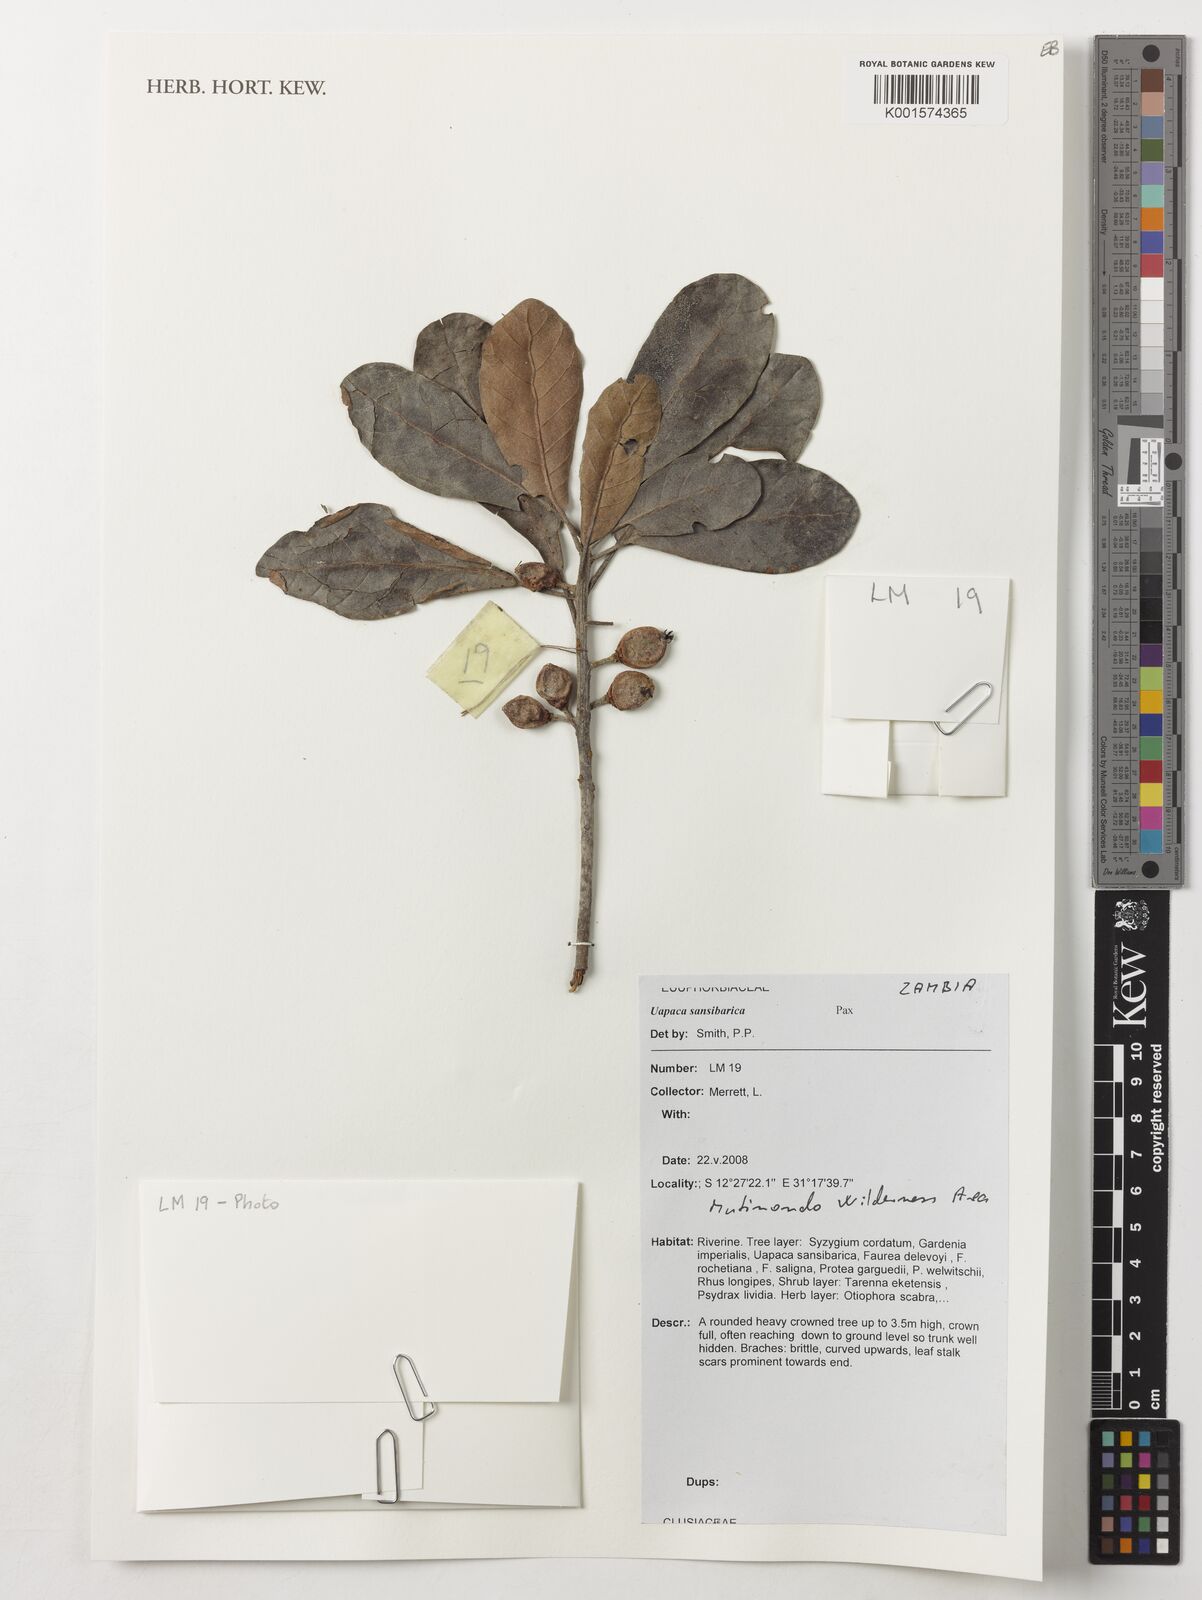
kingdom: Plantae
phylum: Tracheophyta
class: Magnoliopsida
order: Malpighiales
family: Phyllanthaceae
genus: Uapaca
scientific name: Uapaca sansibarica
